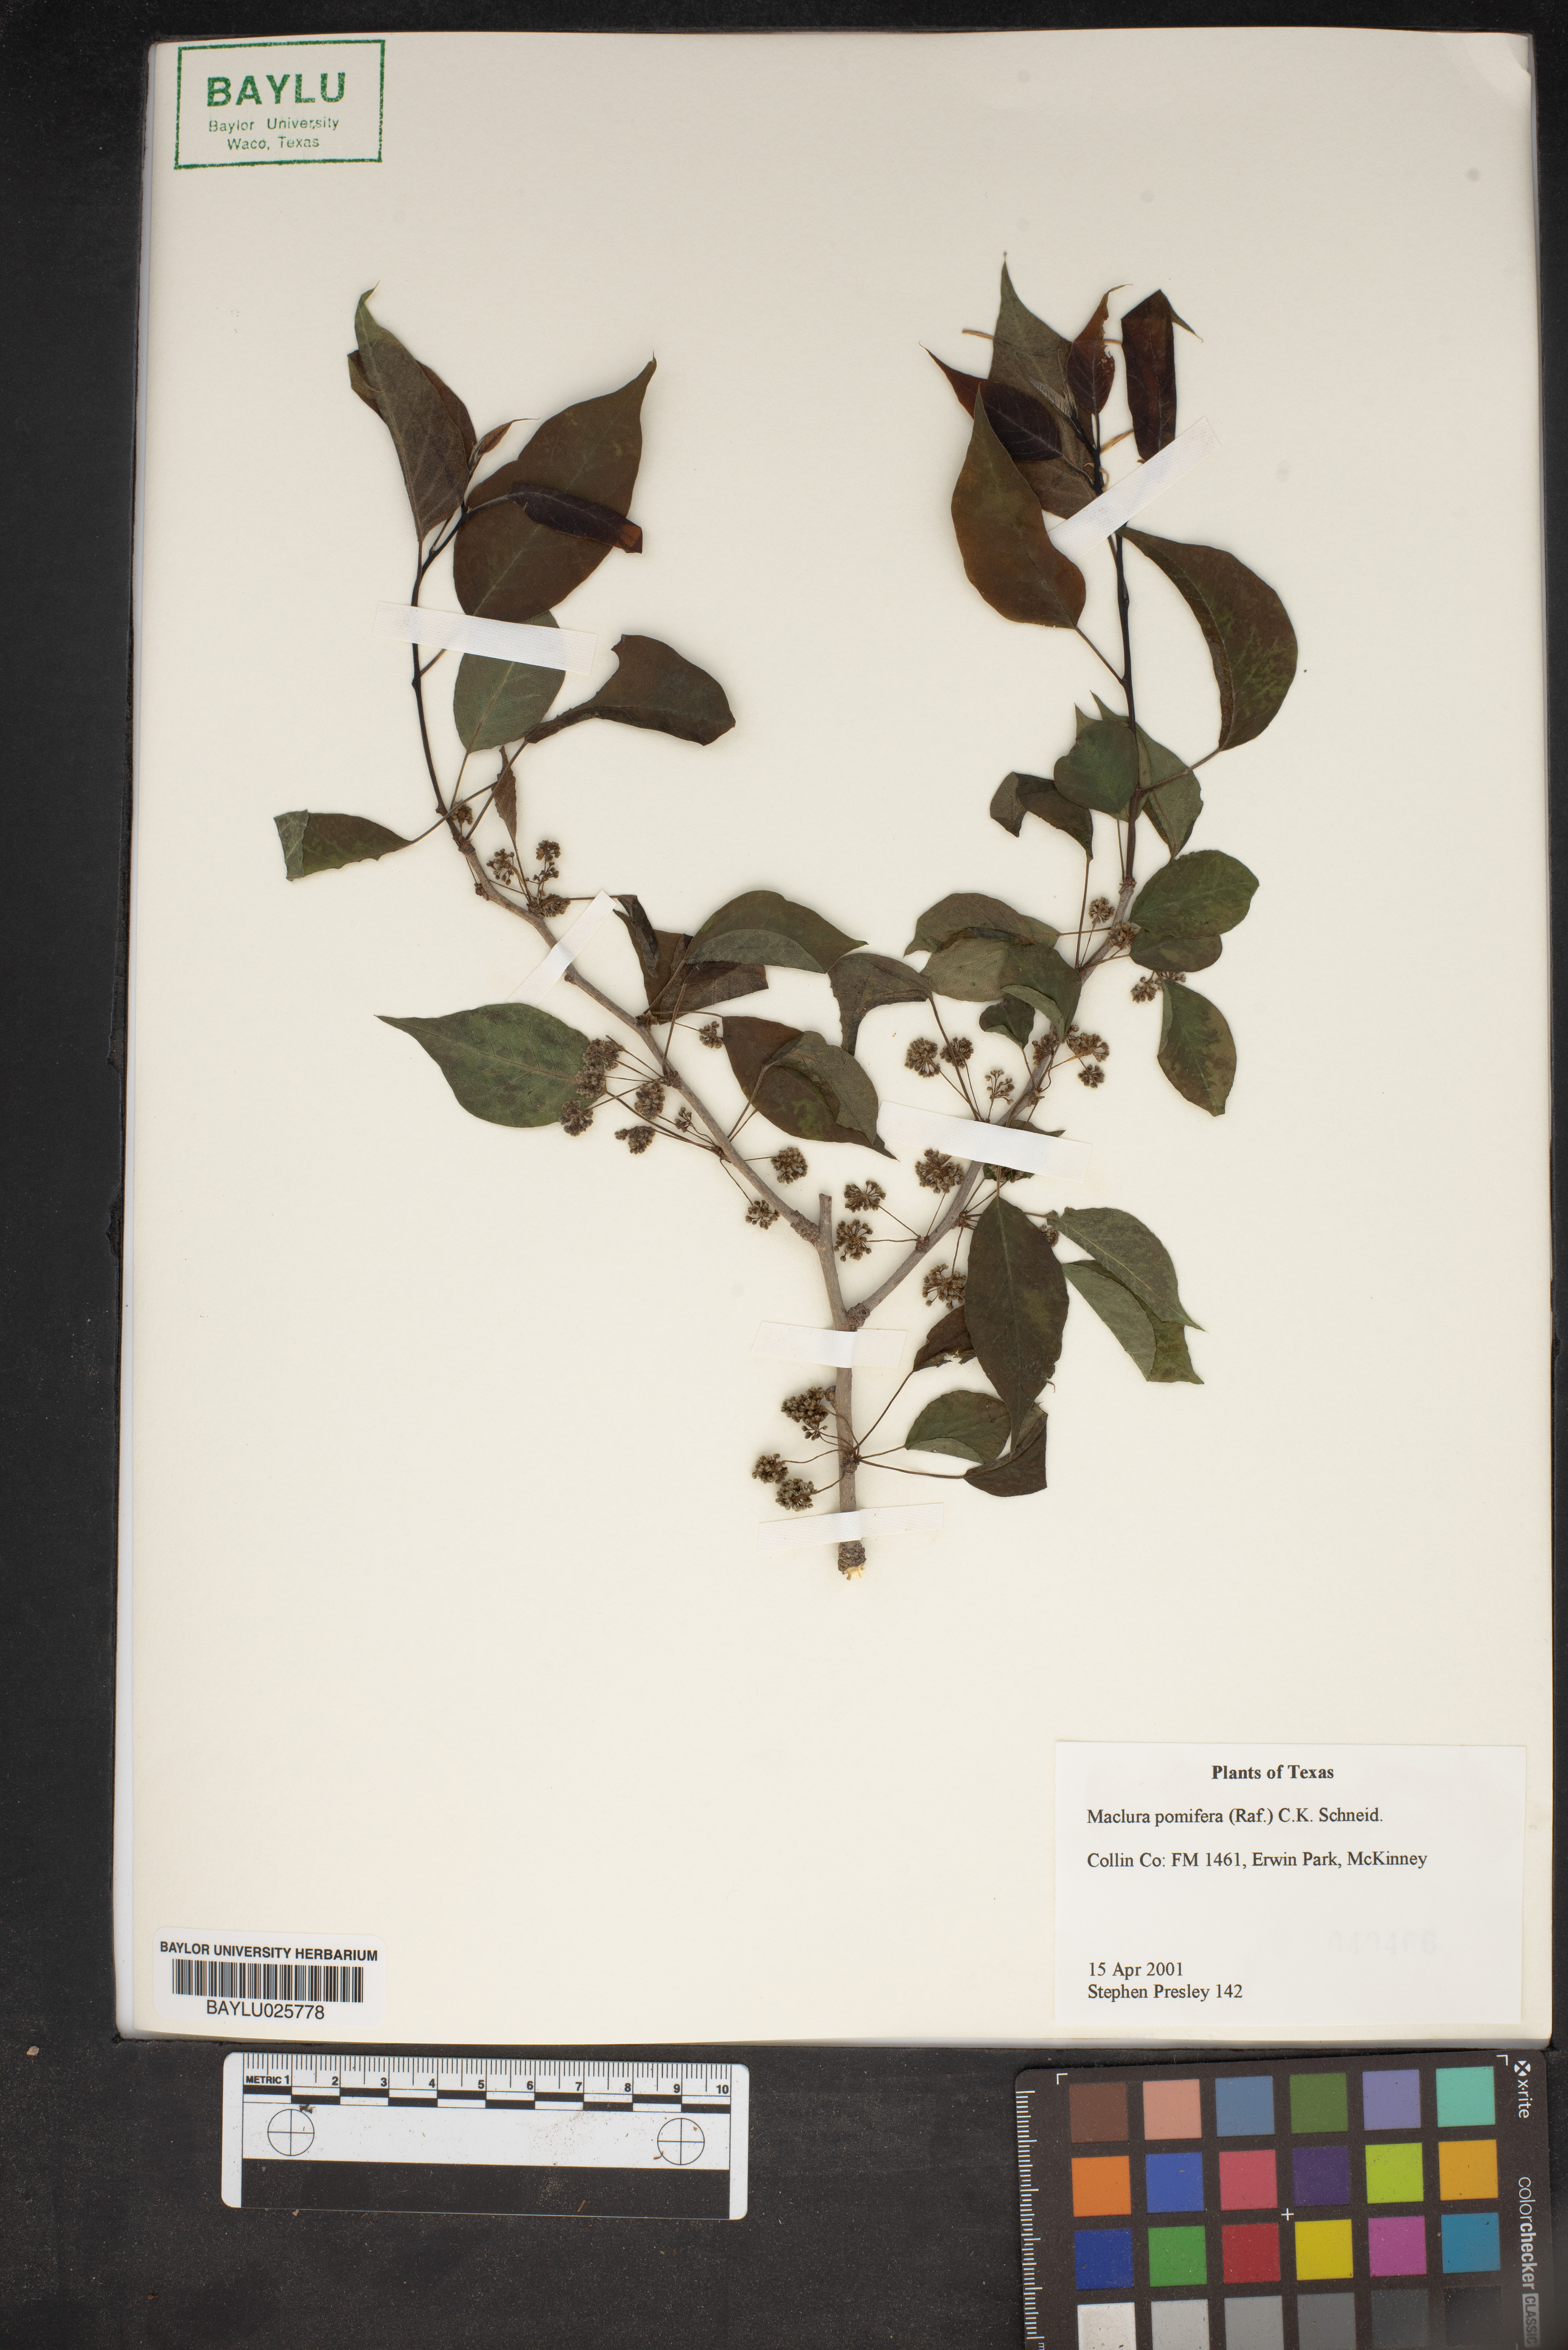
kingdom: Plantae
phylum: Tracheophyta
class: Magnoliopsida
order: Rosales
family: Moraceae
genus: Maclura
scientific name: Maclura pomifera
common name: Osage-orange
